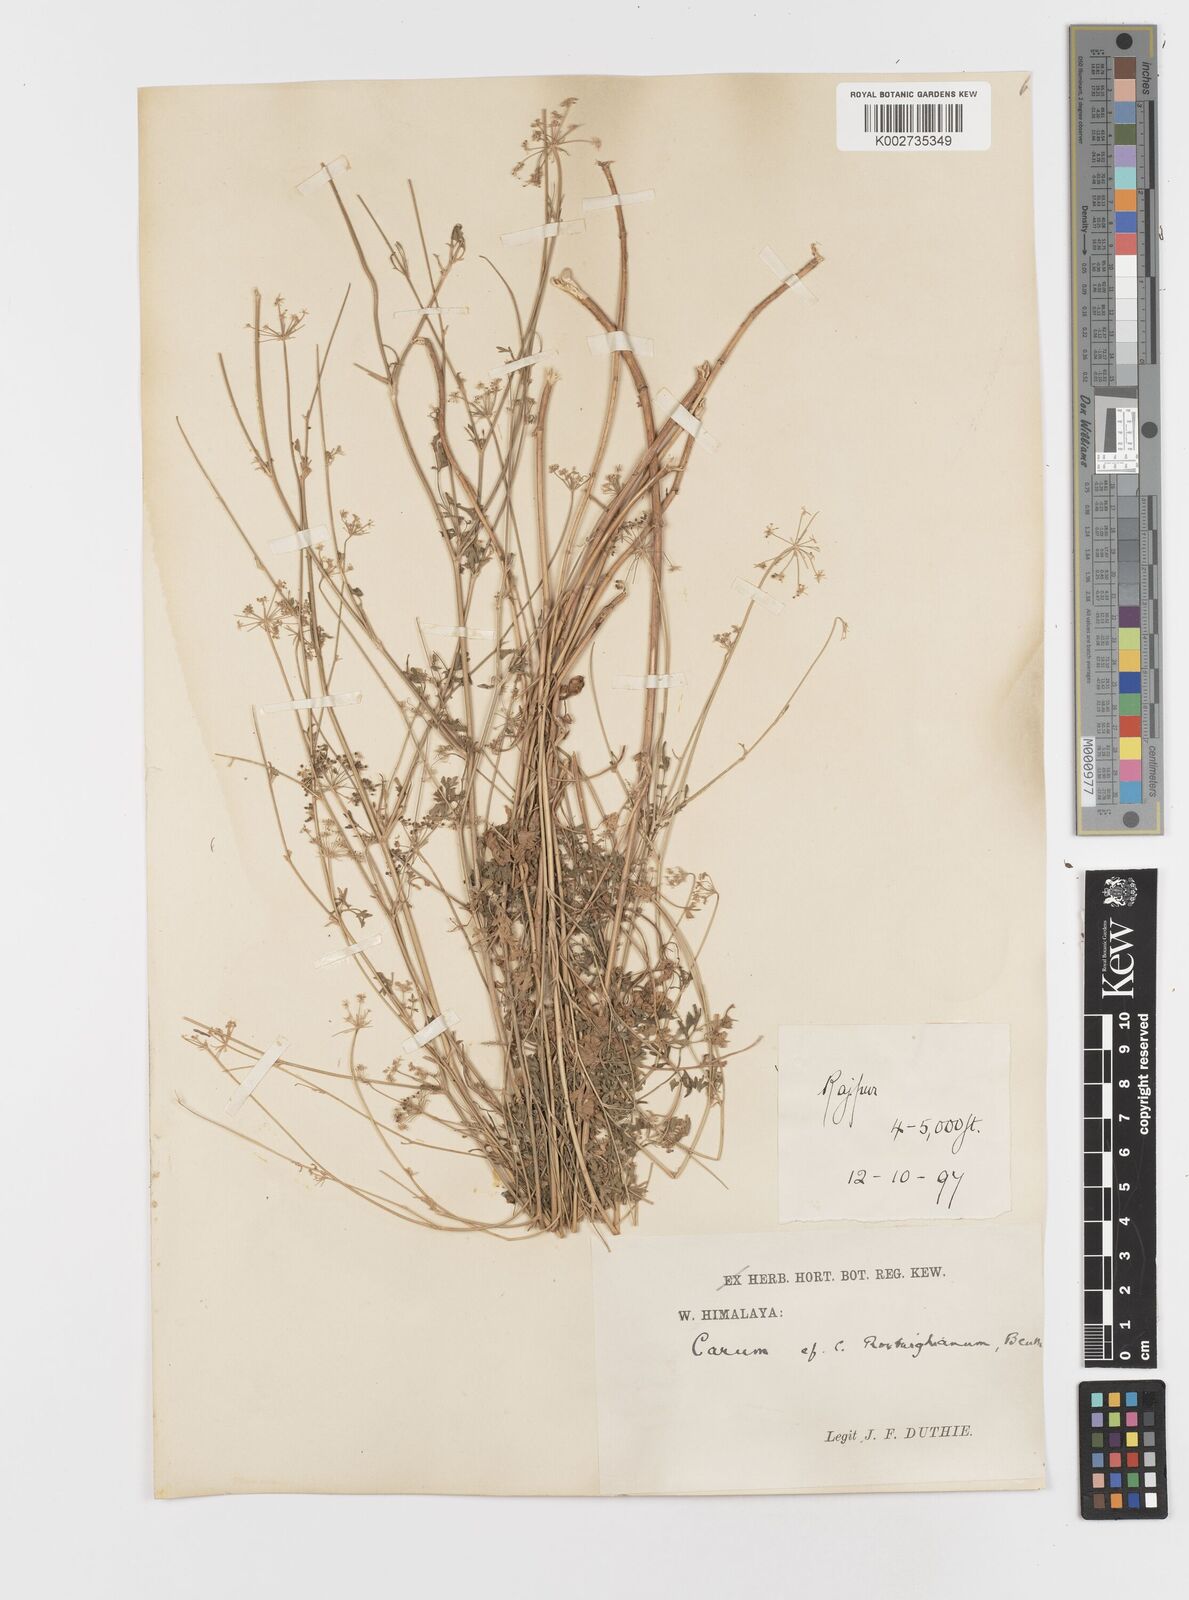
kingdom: Plantae
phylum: Tracheophyta
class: Magnoliopsida
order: Apiales
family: Apiaceae
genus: Psammogeton
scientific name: Psammogeton involucratum
